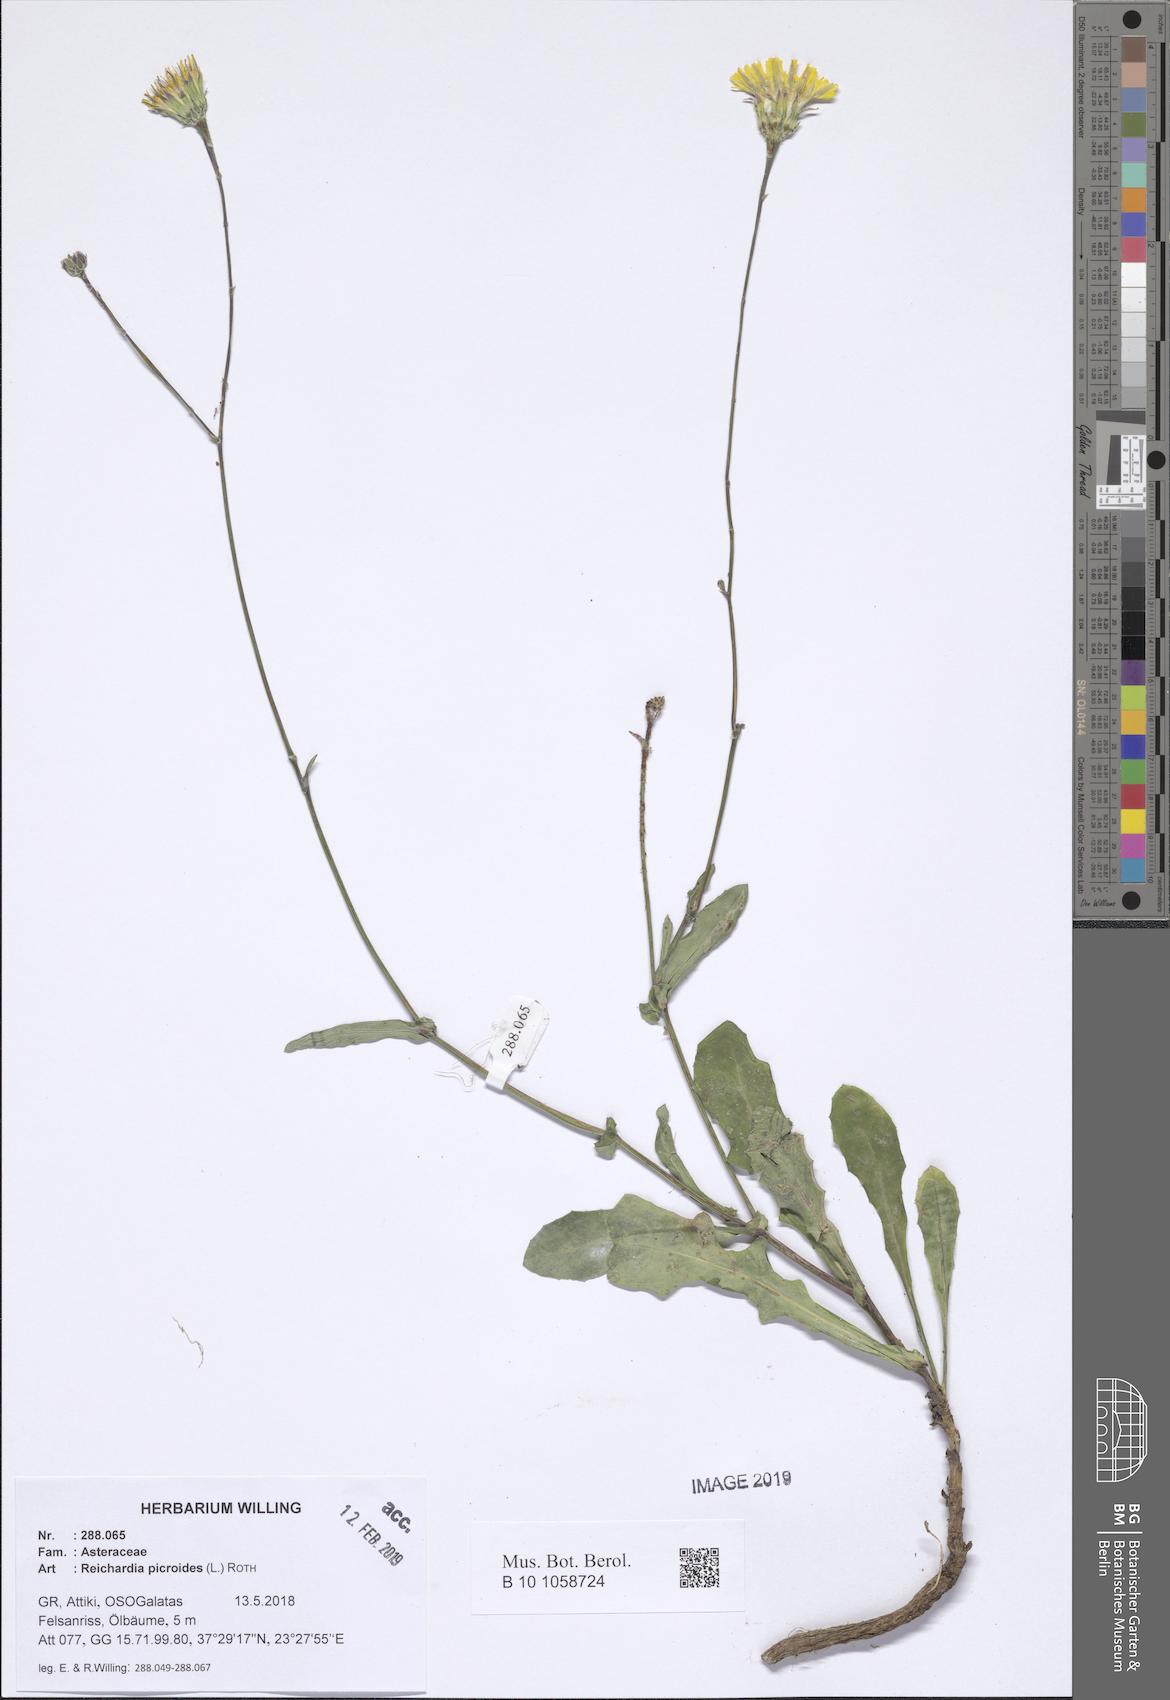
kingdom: Plantae
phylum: Tracheophyta
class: Magnoliopsida
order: Asterales
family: Asteraceae
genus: Reichardia
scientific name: Reichardia picroides
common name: Common brighteyes
